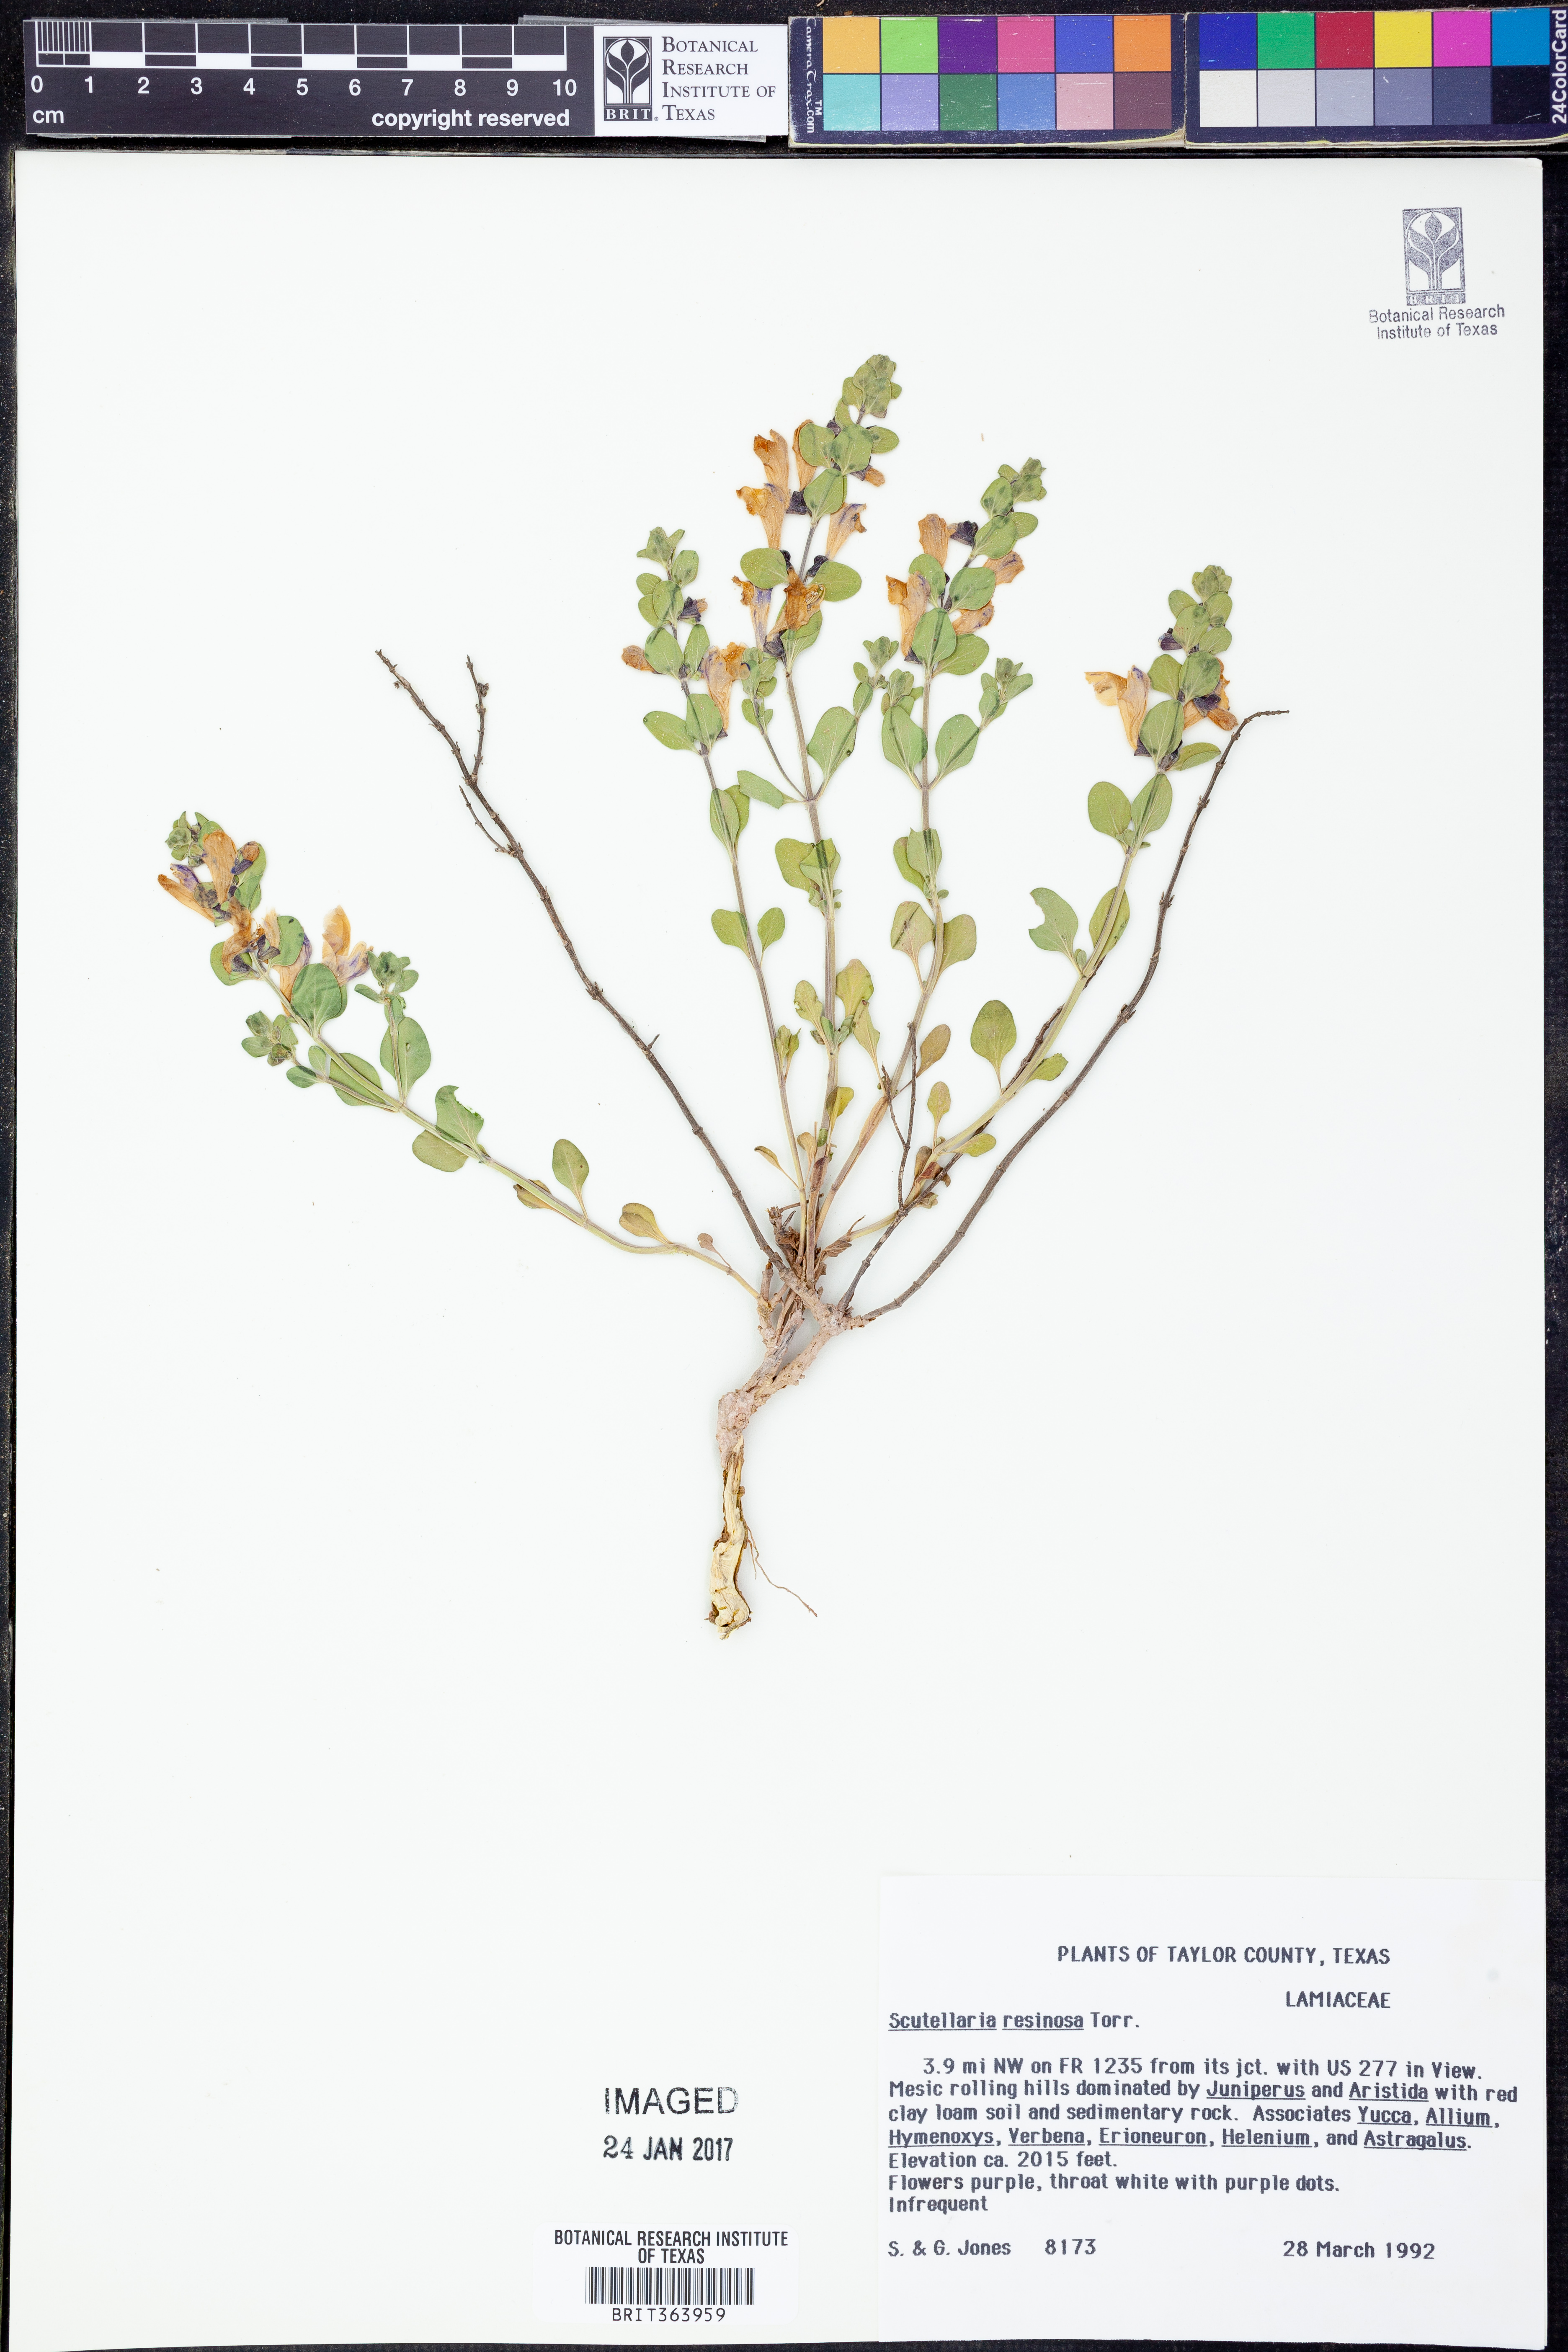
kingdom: Plantae
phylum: Tracheophyta
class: Magnoliopsida
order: Lamiales
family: Lamiaceae
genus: Scutellaria
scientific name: Scutellaria resinosa
